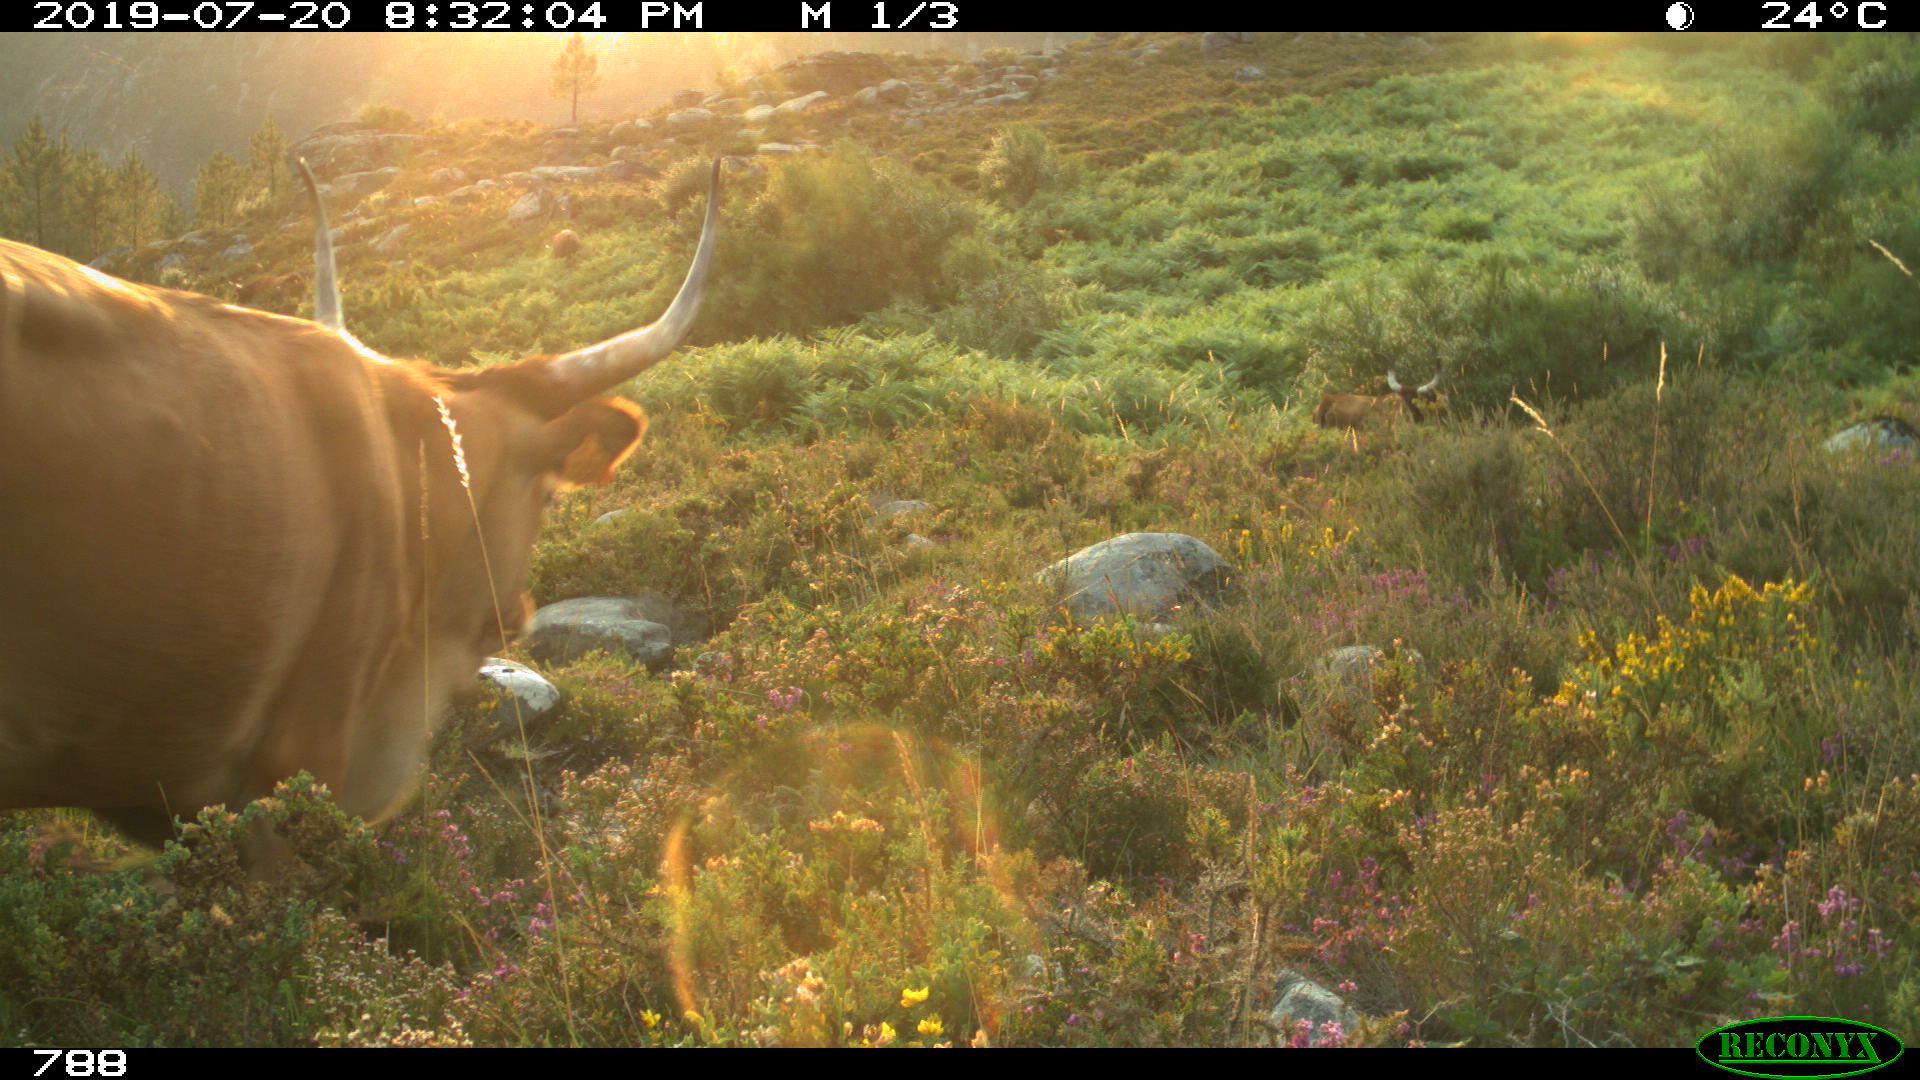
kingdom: Animalia
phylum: Chordata
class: Mammalia
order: Artiodactyla
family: Bovidae
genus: Bos
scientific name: Bos taurus
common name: Domesticated cattle
